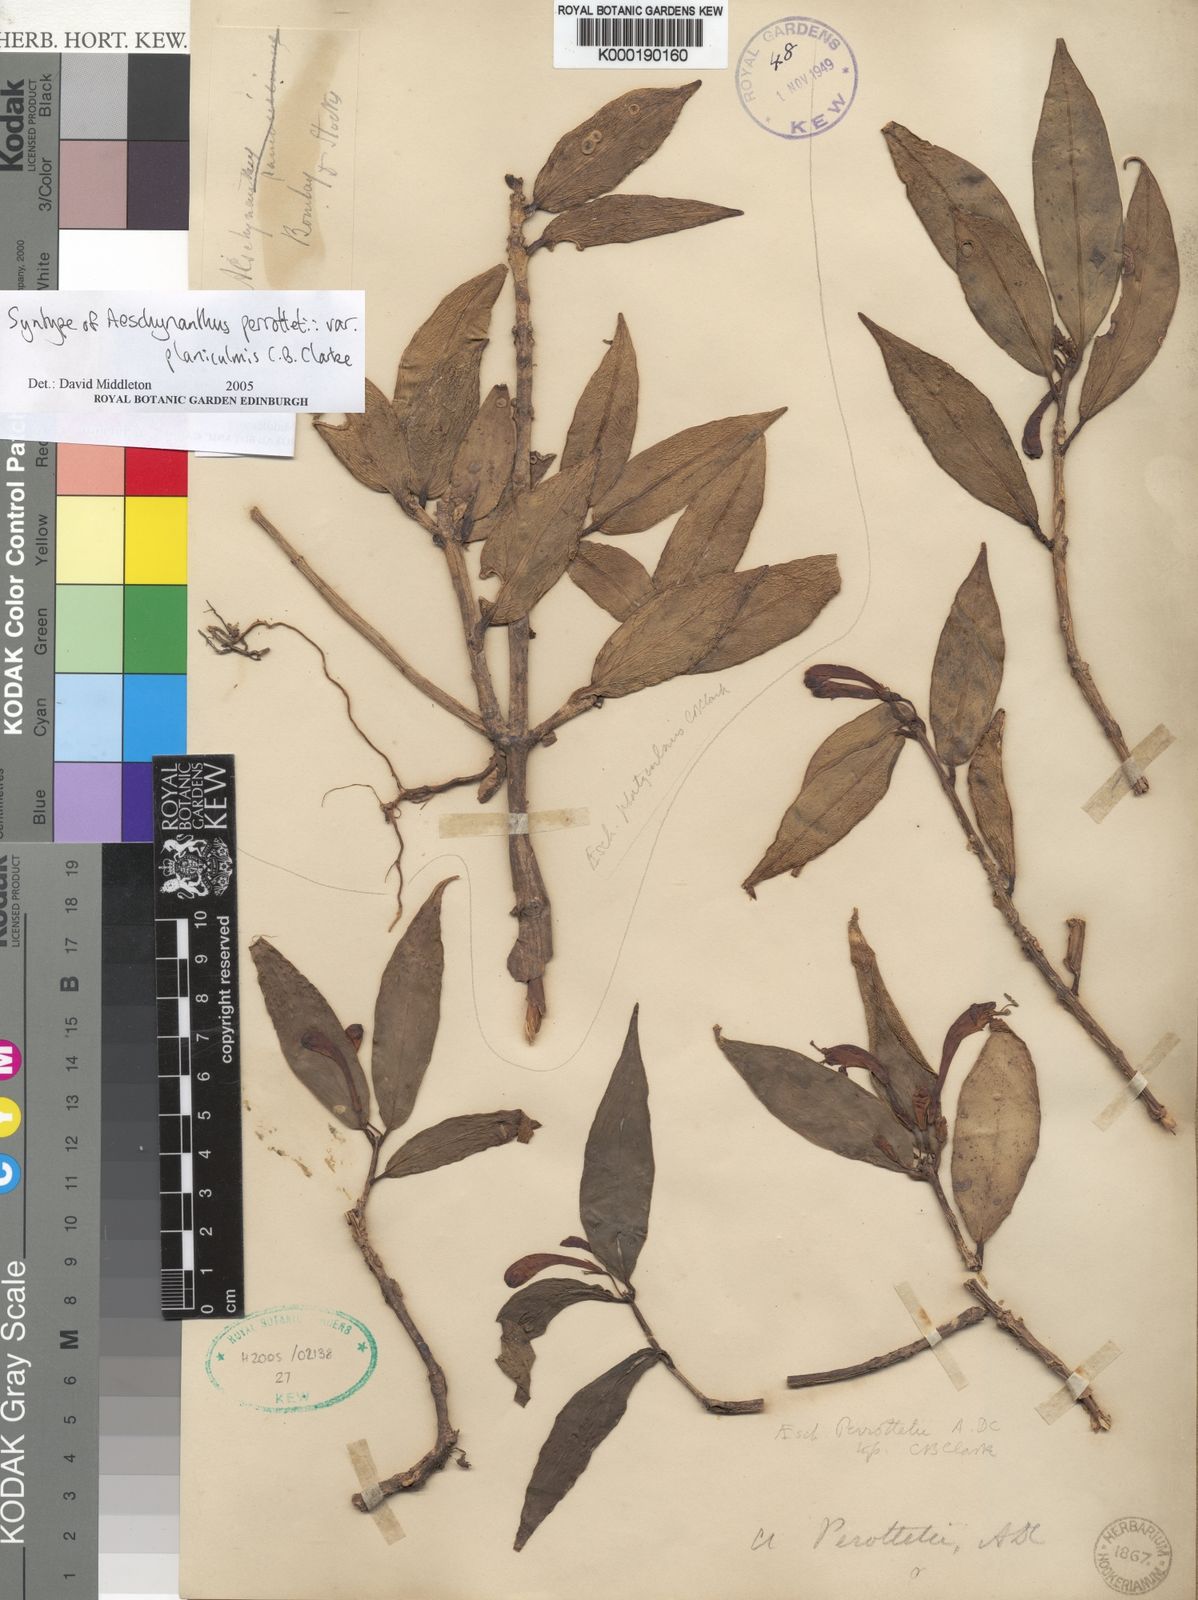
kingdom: Plantae
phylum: Tracheophyta
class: Magnoliopsida
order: Lamiales
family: Gesneriaceae
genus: Aeschynanthus
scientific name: Aeschynanthus perrottetii
